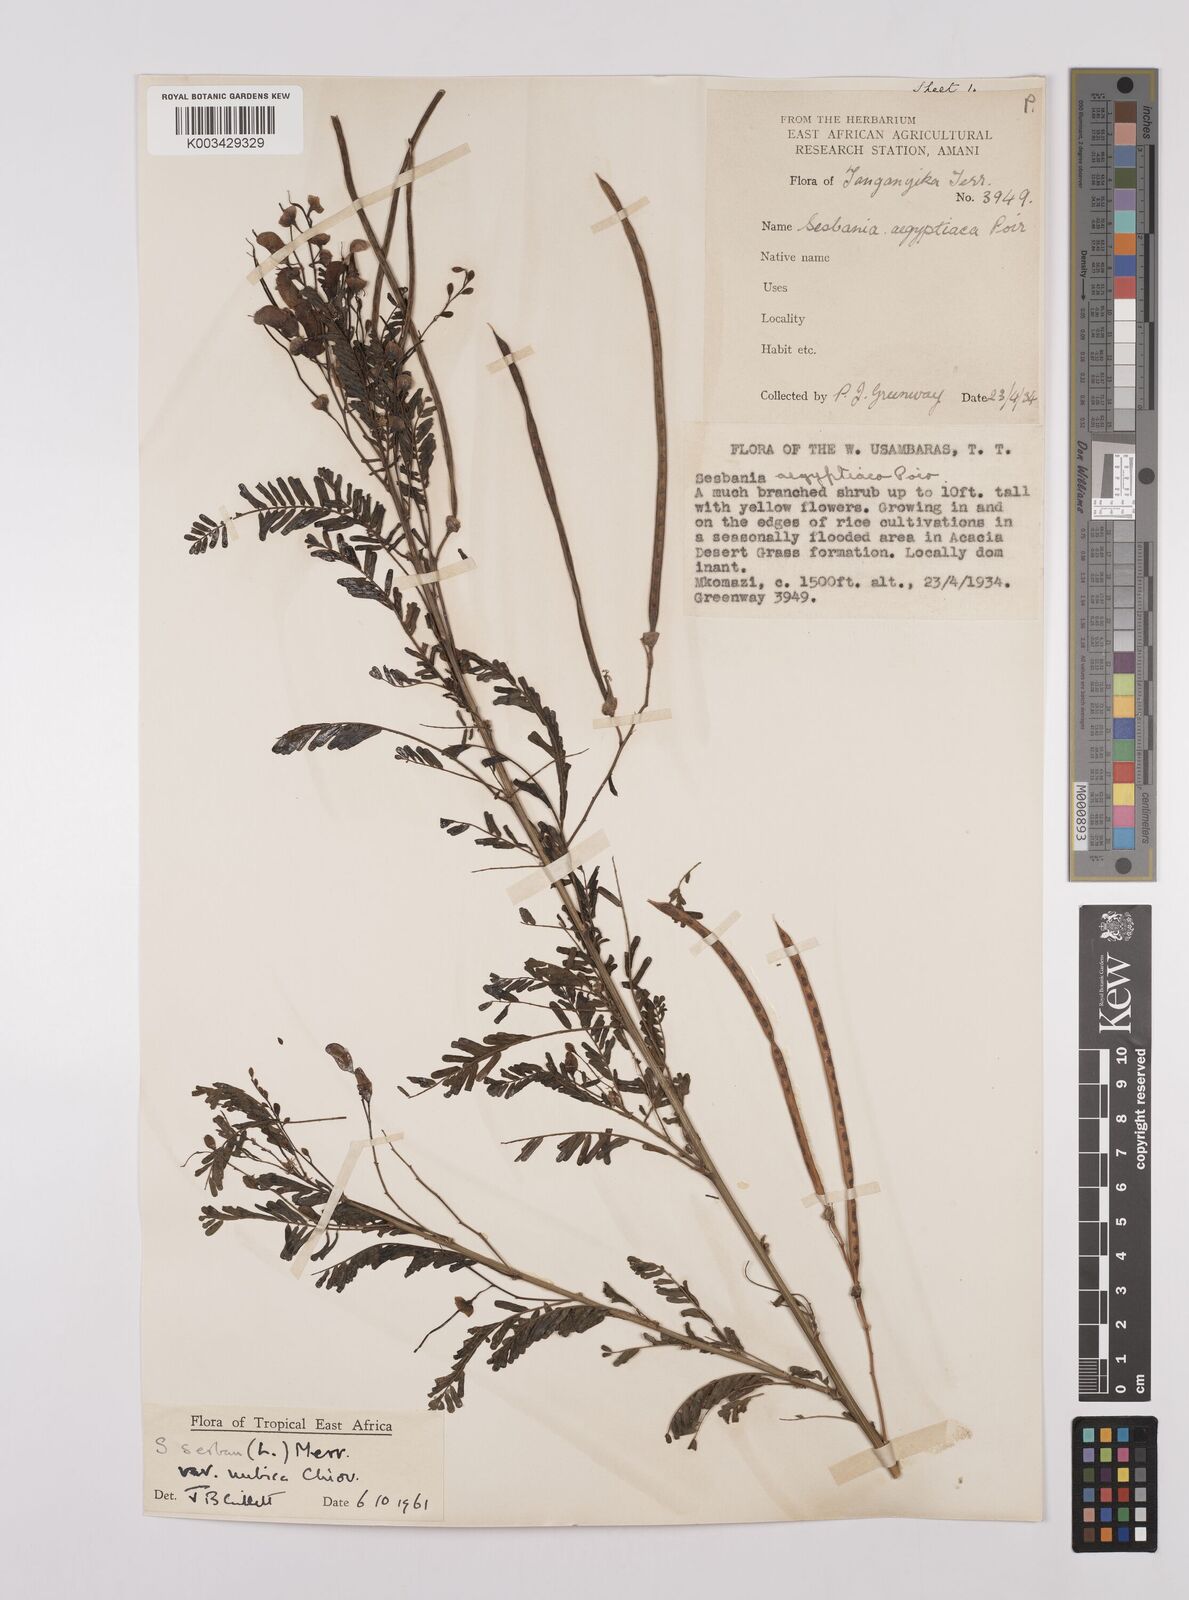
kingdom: Plantae
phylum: Tracheophyta
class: Magnoliopsida
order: Fabales
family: Fabaceae
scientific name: Fabaceae
